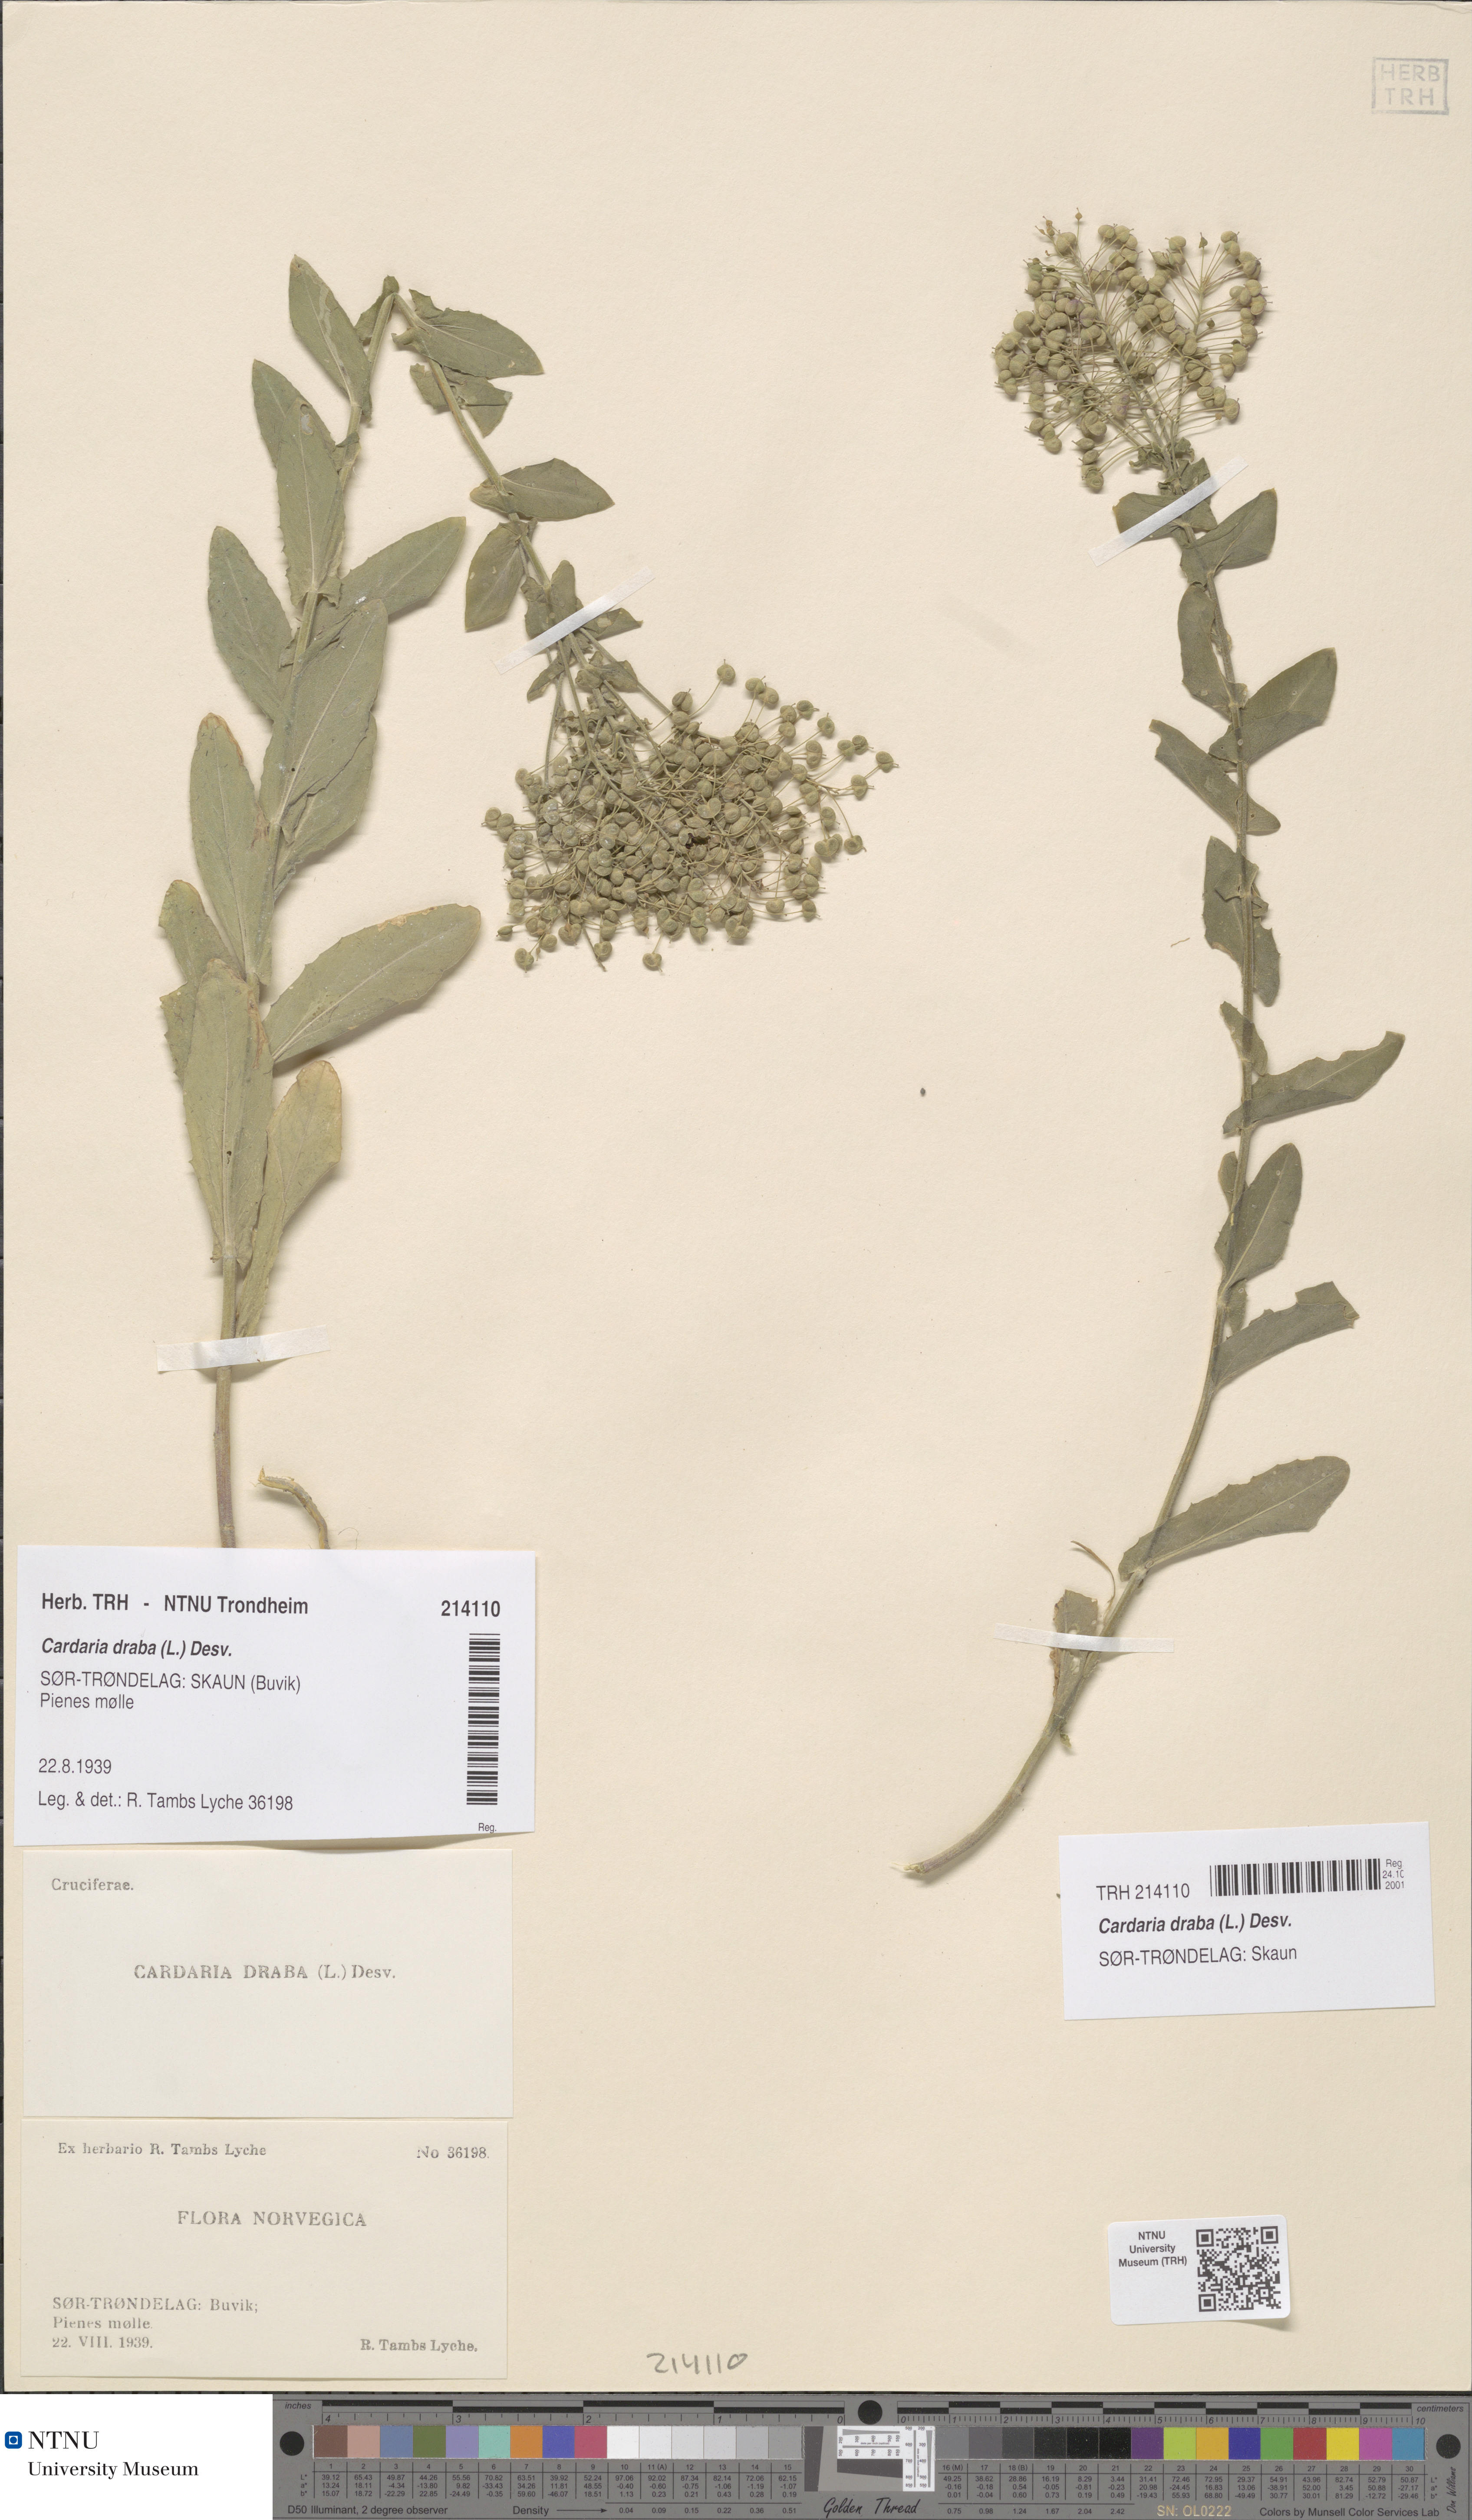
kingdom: Plantae
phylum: Tracheophyta
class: Magnoliopsida
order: Brassicales
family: Brassicaceae
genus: Lepidium
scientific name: Lepidium draba
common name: Hoary cress
